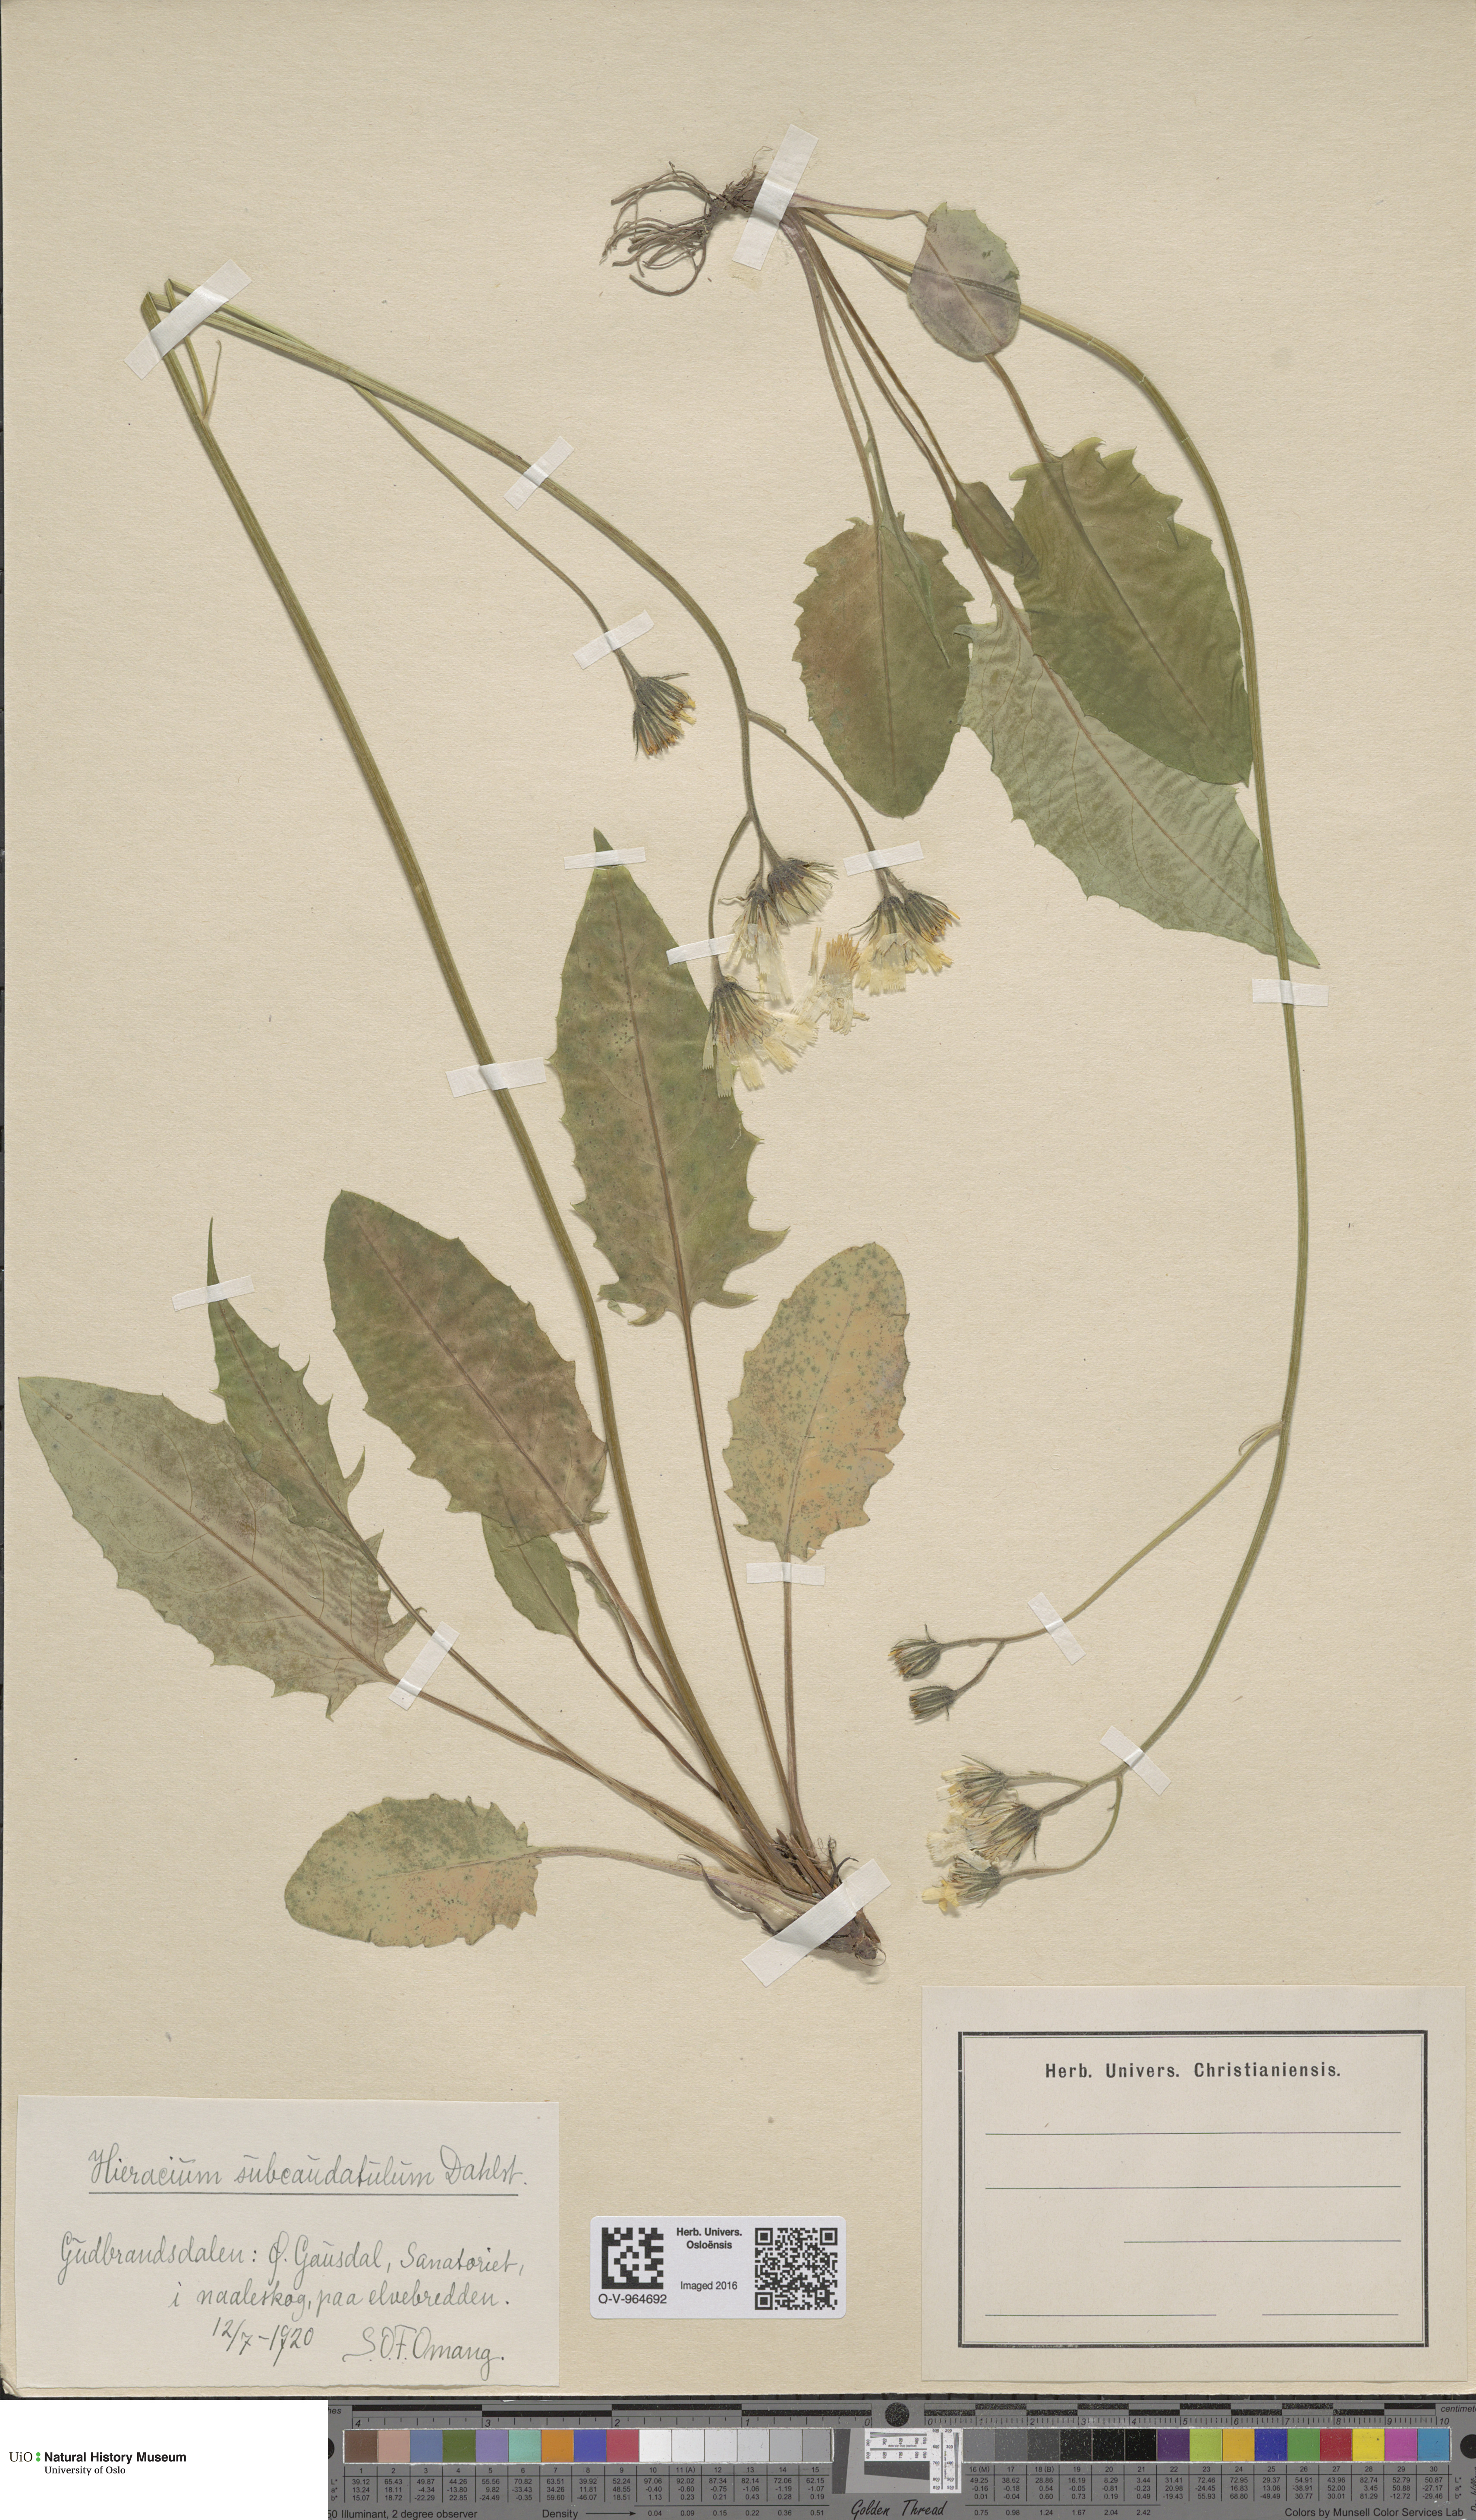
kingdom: Plantae
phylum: Tracheophyta
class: Magnoliopsida
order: Asterales
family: Asteraceae
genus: Hieracium
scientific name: Hieracium
